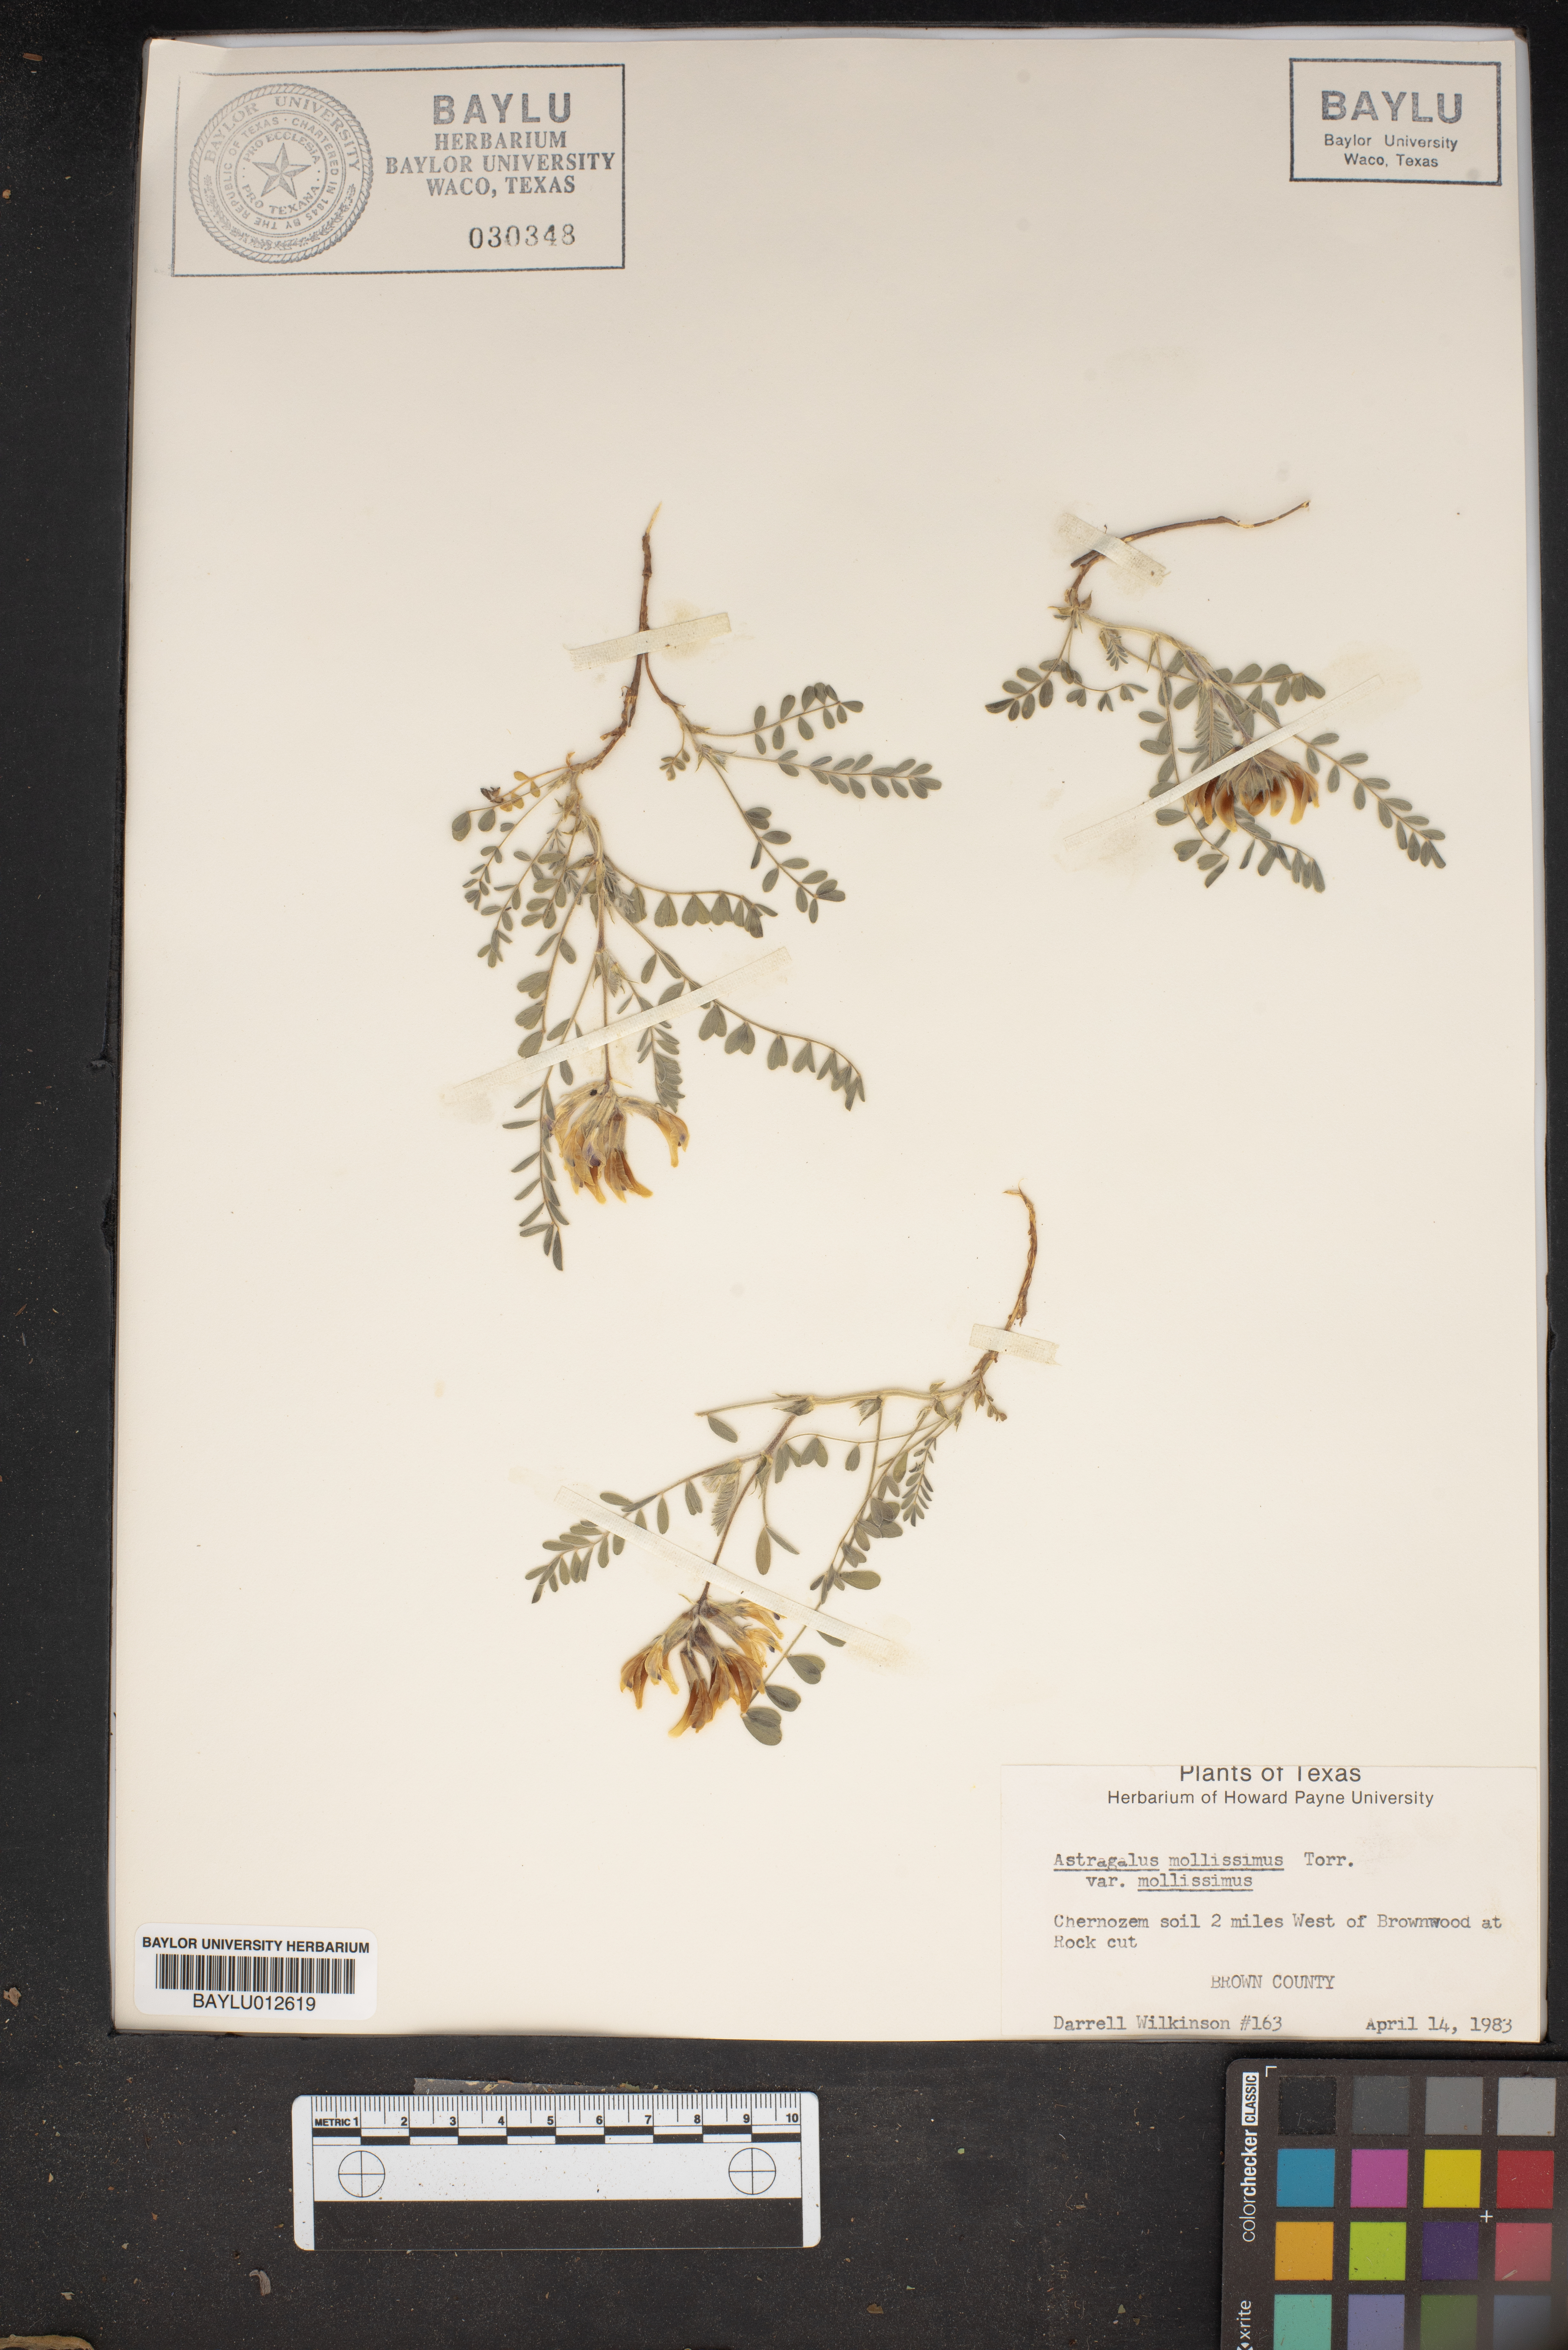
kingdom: Plantae
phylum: Tracheophyta
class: Magnoliopsida
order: Fabales
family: Fabaceae
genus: Astragalus
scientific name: Astragalus mollissimus
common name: Woolly locoweed
